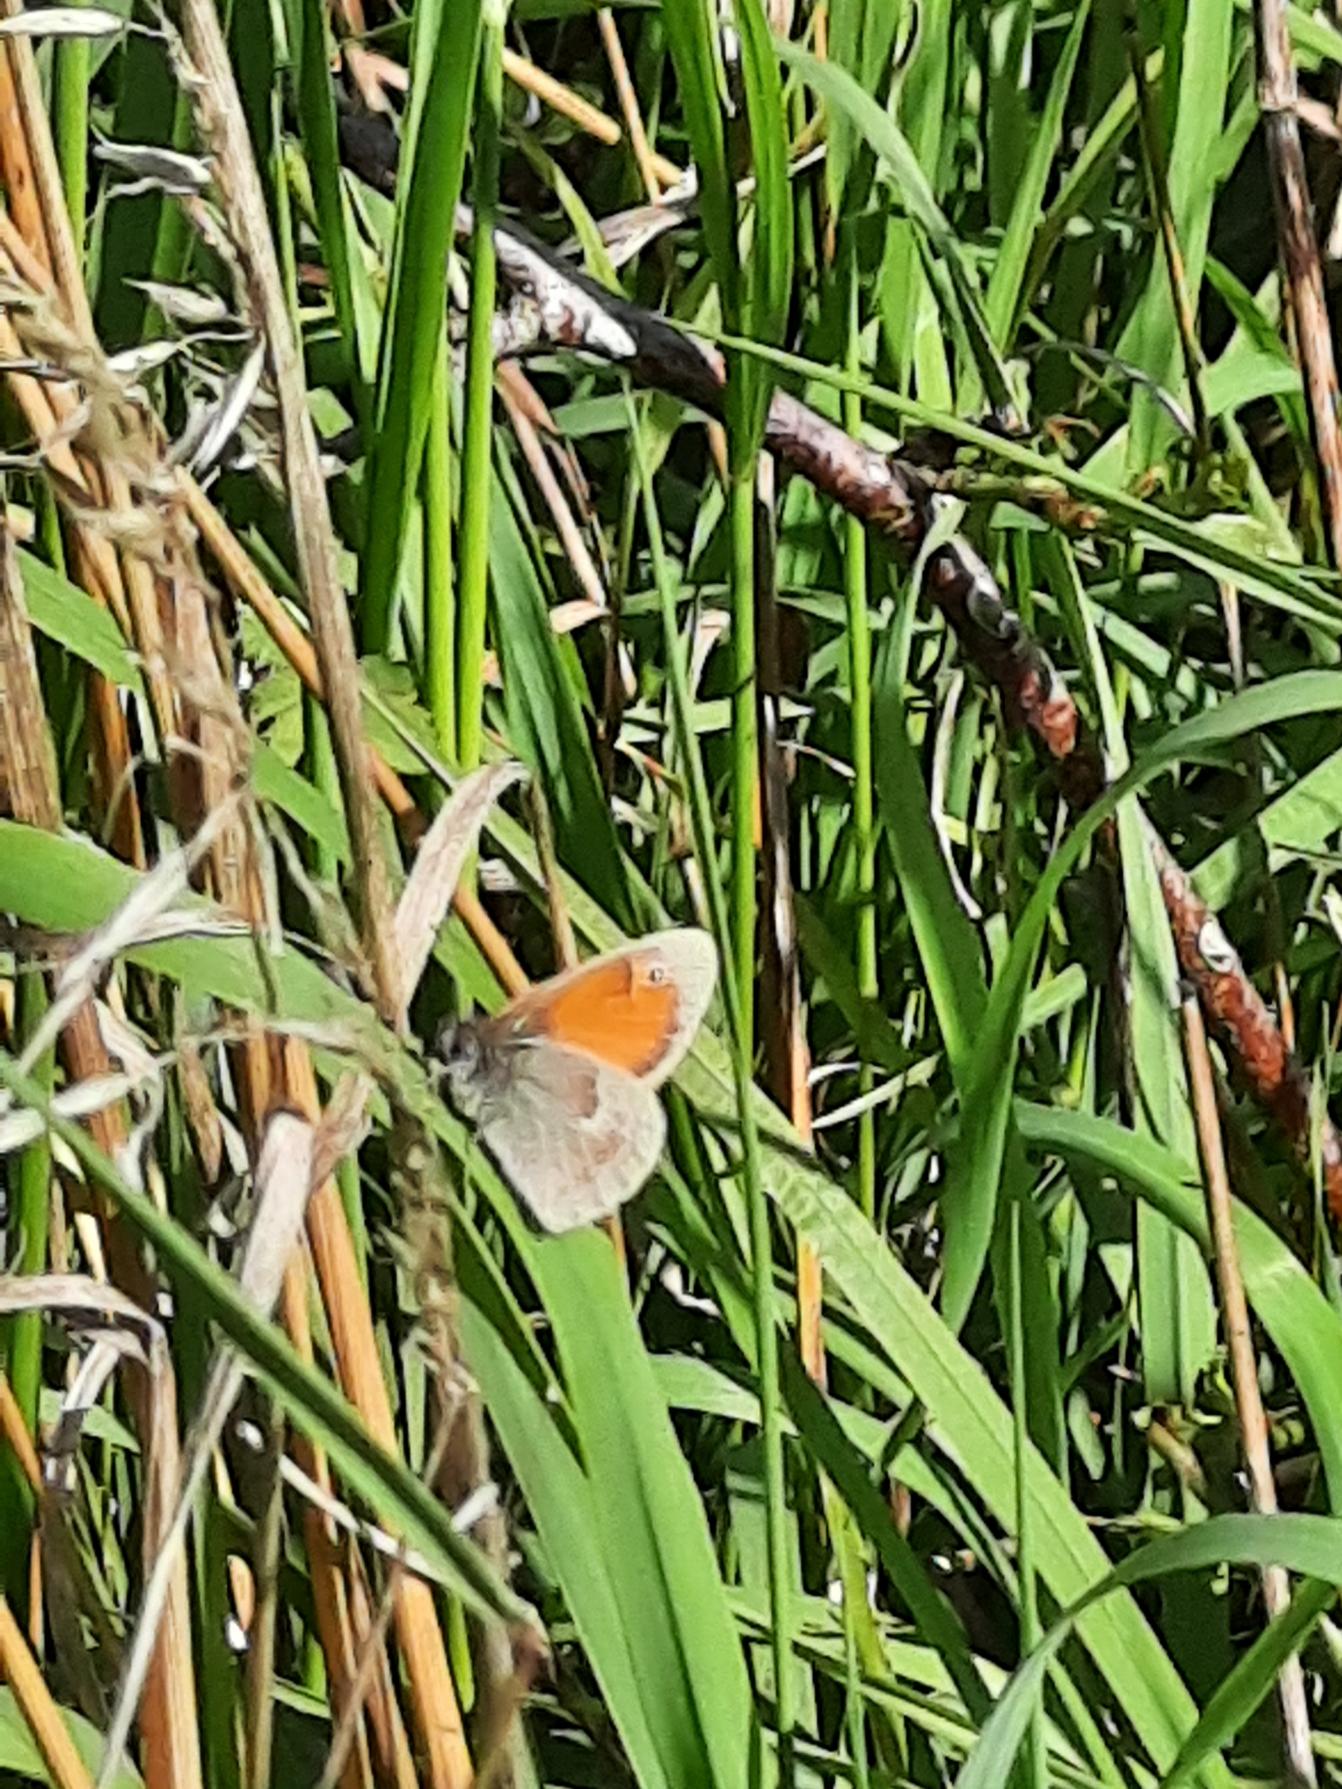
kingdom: Animalia
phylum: Arthropoda
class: Insecta
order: Lepidoptera
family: Nymphalidae
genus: Coenonympha
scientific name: Coenonympha pamphilus
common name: Okkergul randøje
